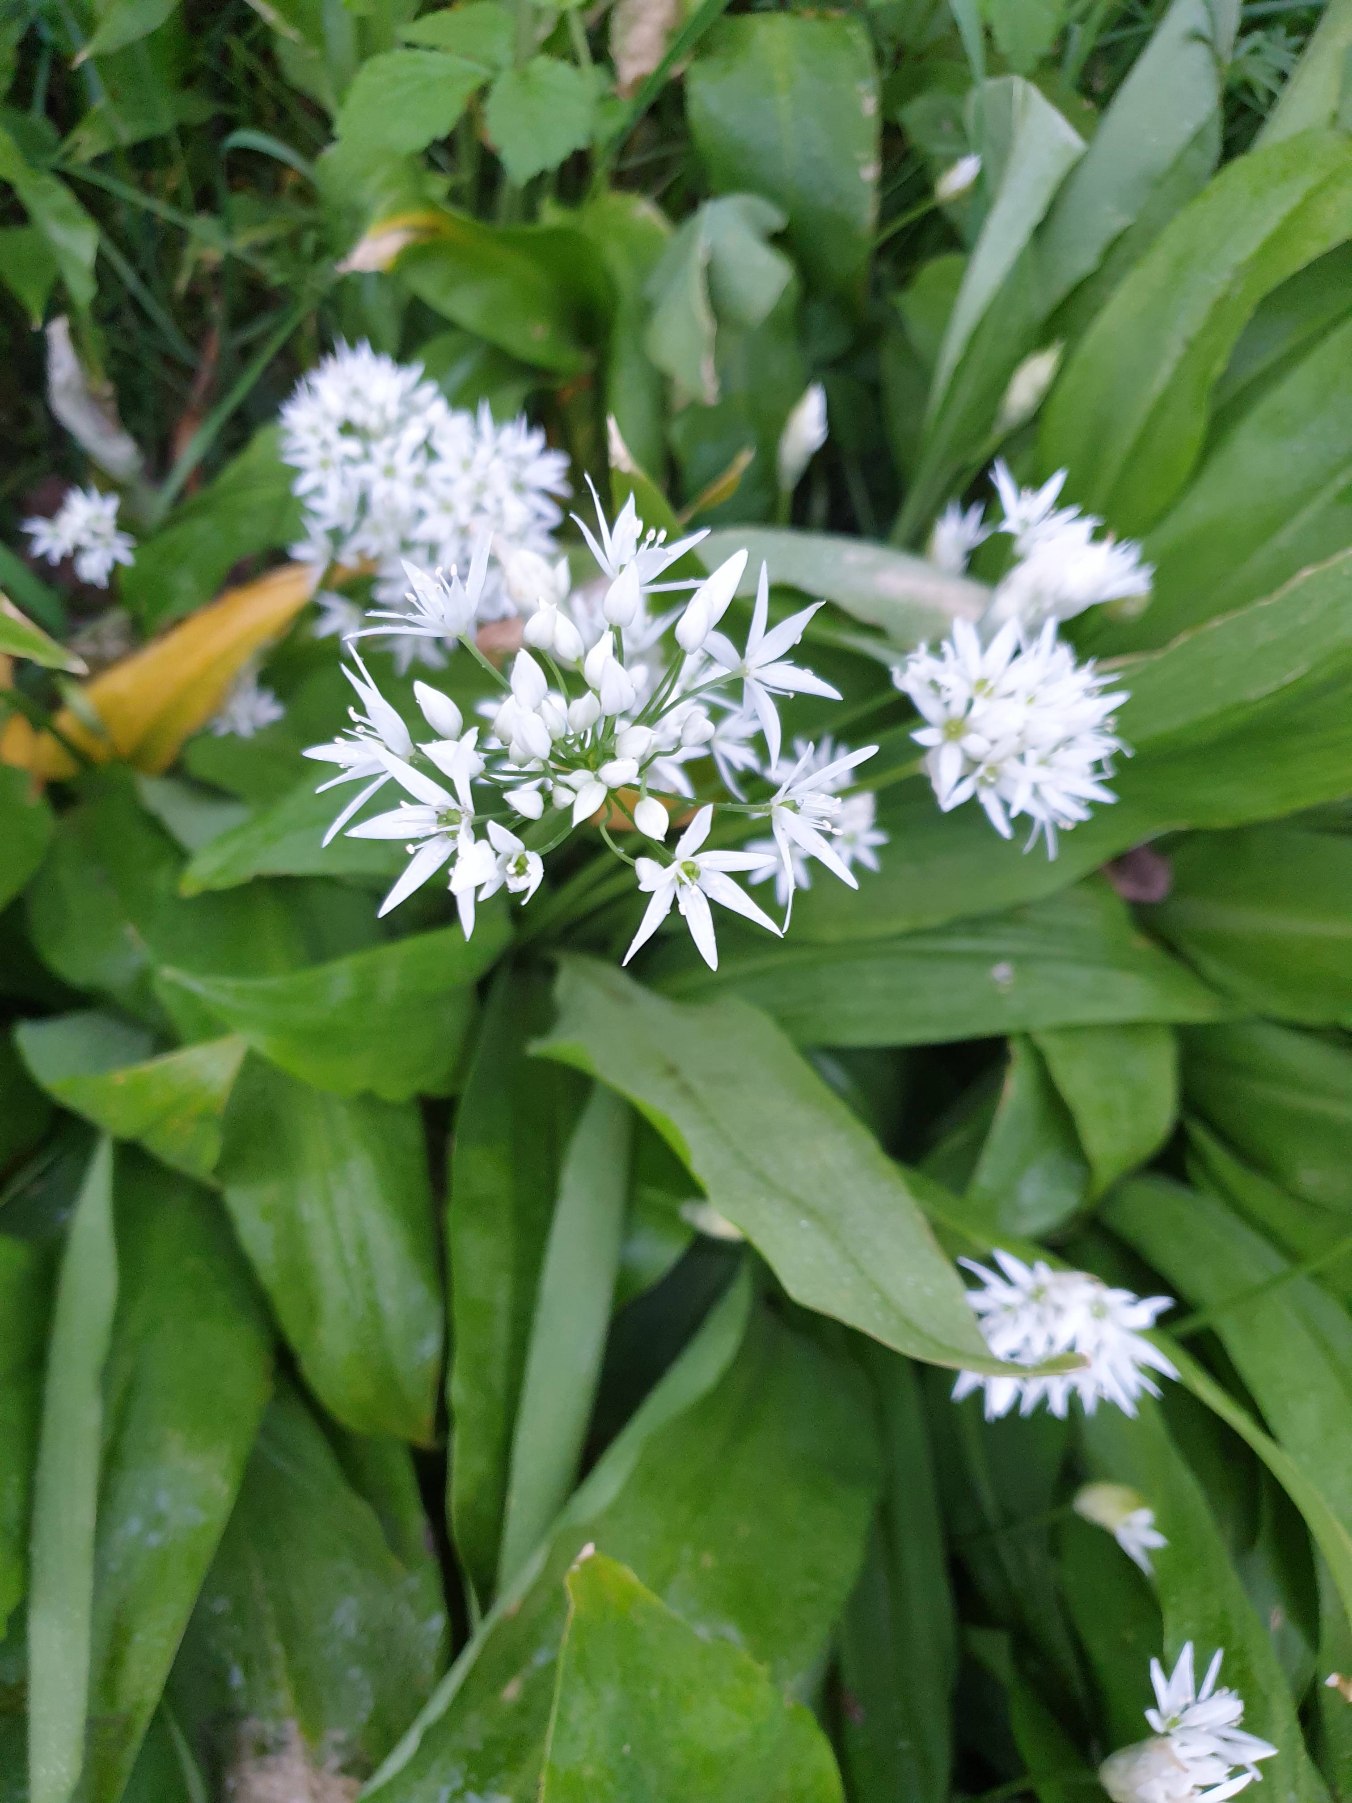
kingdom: Plantae
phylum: Tracheophyta
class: Liliopsida
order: Asparagales
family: Amaryllidaceae
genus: Allium
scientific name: Allium ursinum
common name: Rams-løg
